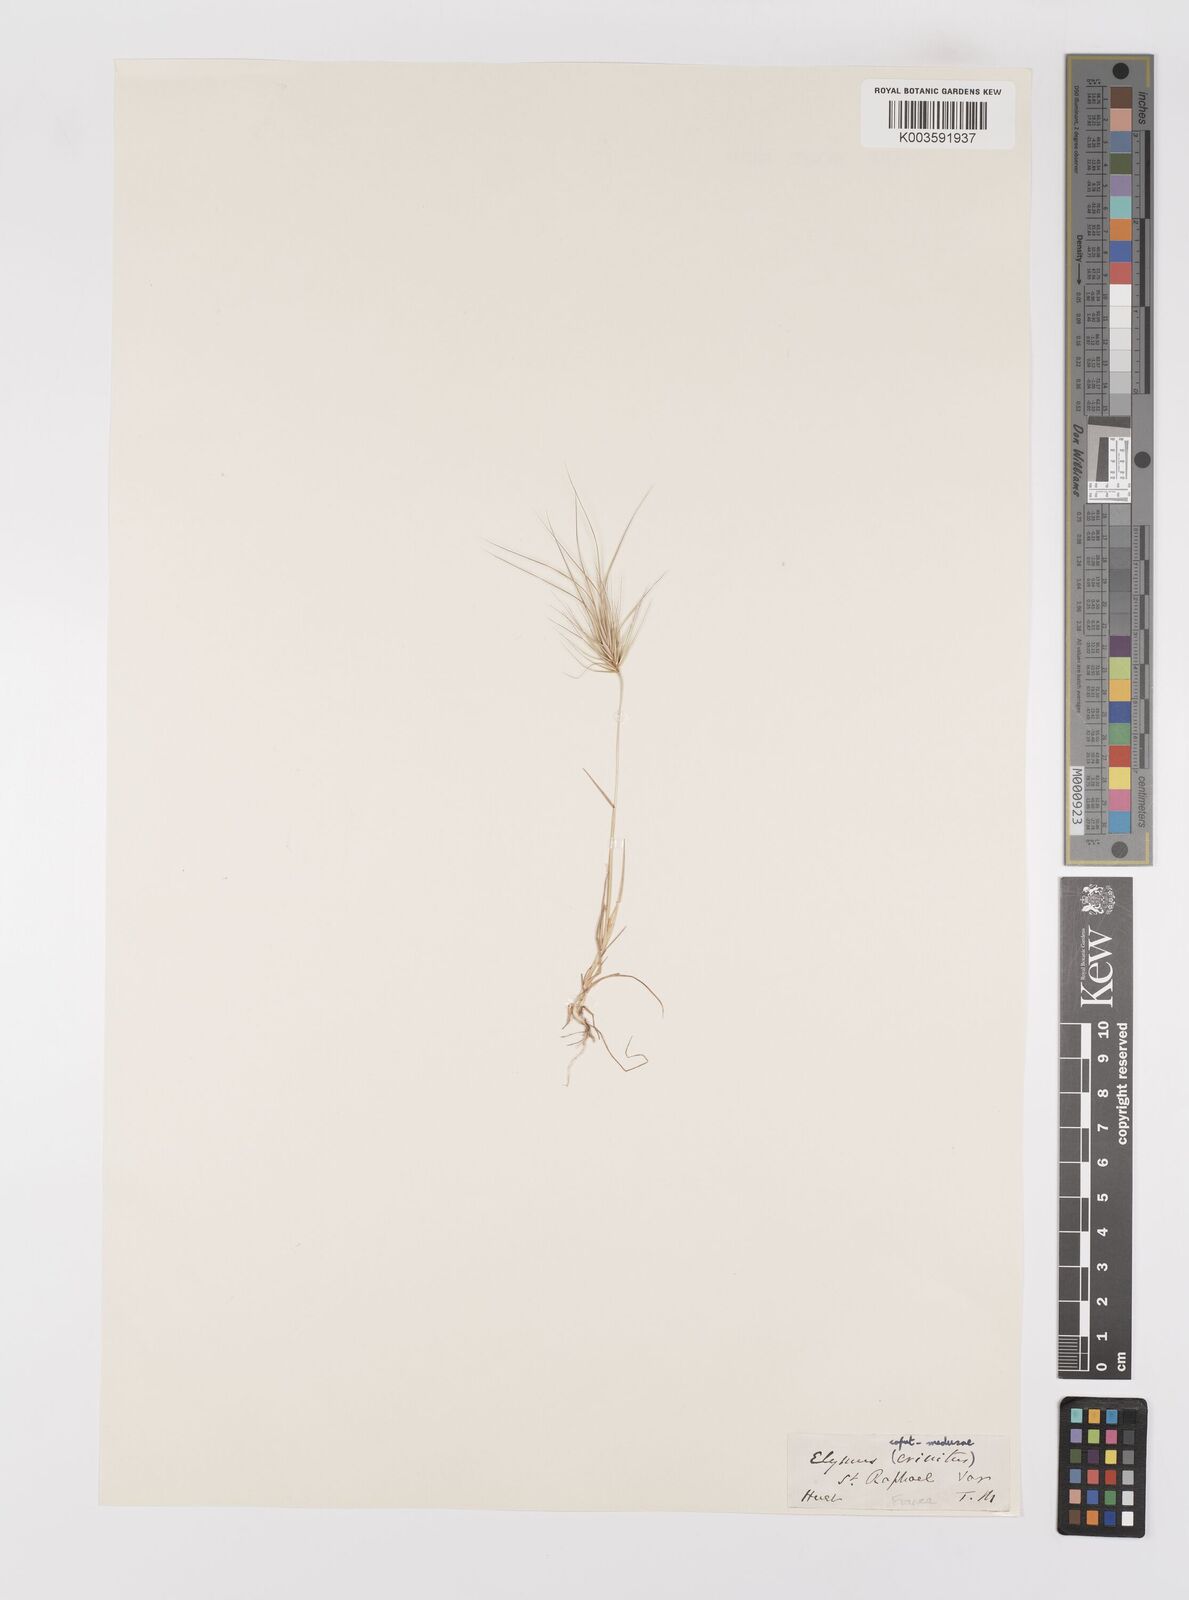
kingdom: Plantae
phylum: Tracheophyta
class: Liliopsida
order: Poales
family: Poaceae
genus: Taeniatherum
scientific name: Taeniatherum caput-medusae
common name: Medusahead
